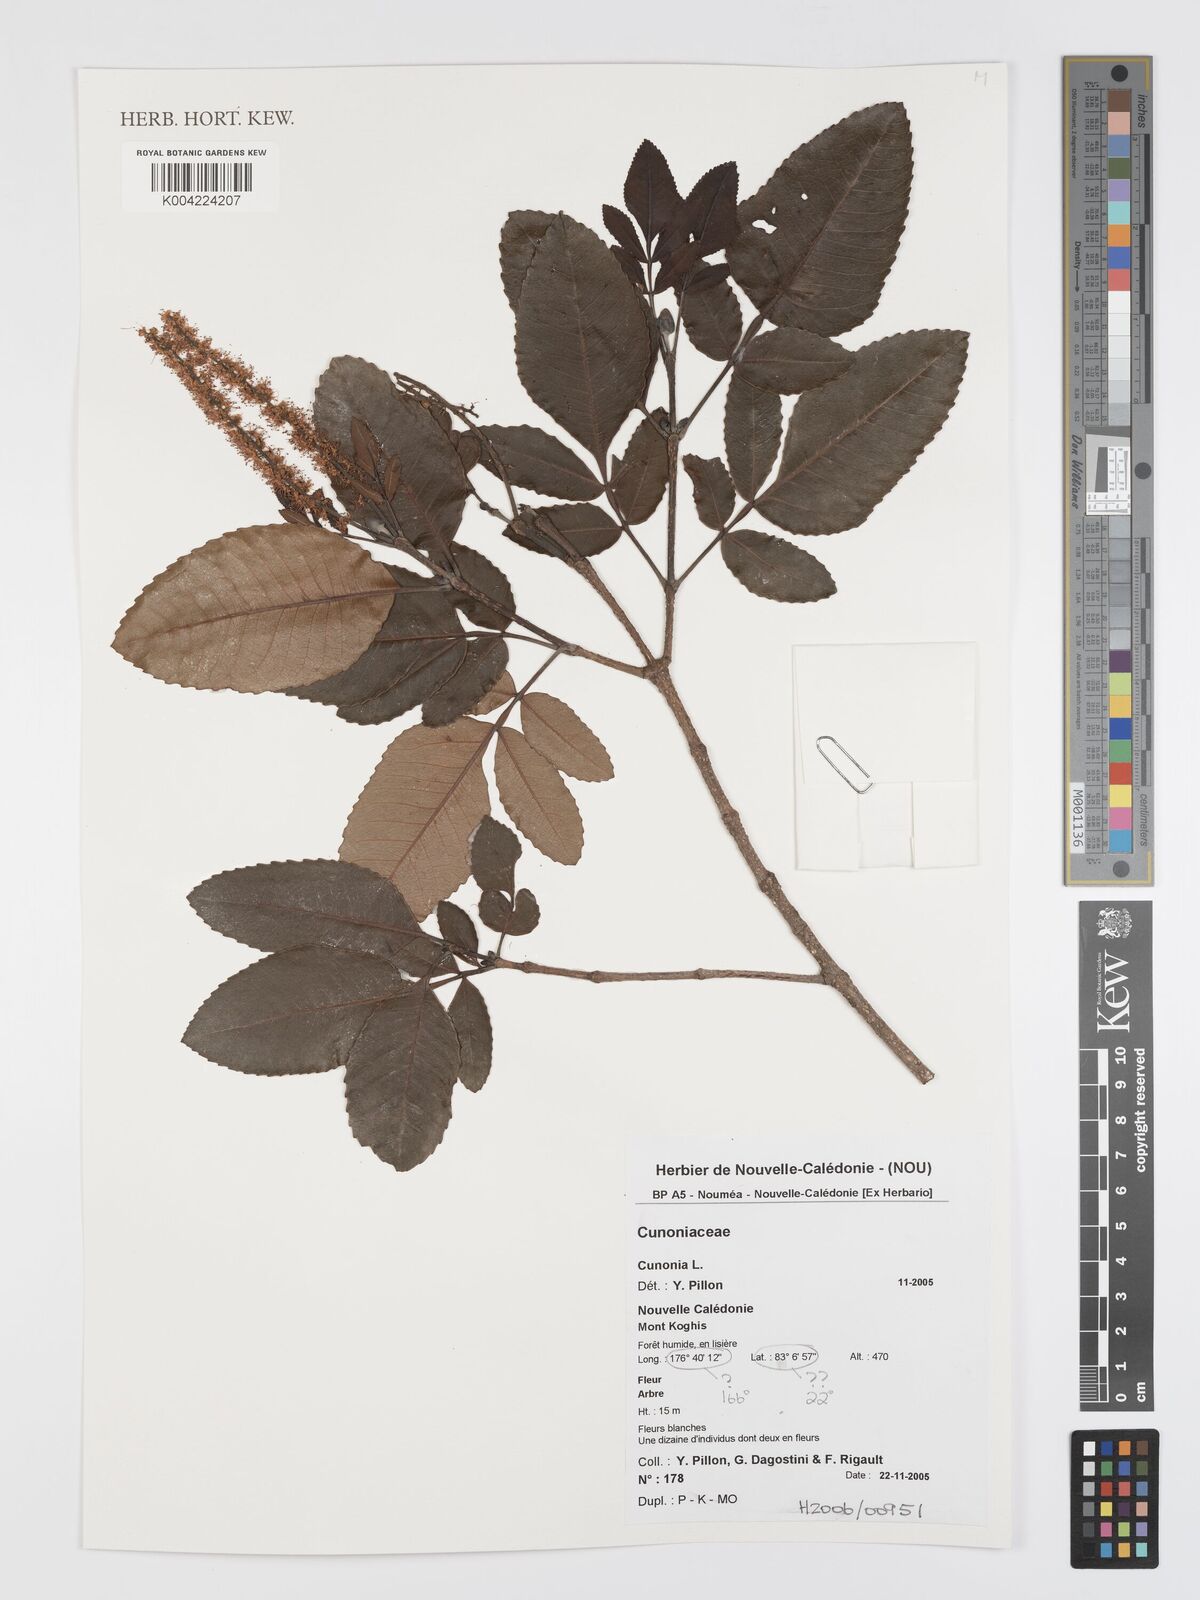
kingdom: Plantae
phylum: Tracheophyta
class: Magnoliopsida
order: Oxalidales
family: Cunoniaceae
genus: Cunonia
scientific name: Cunonia koghicola
